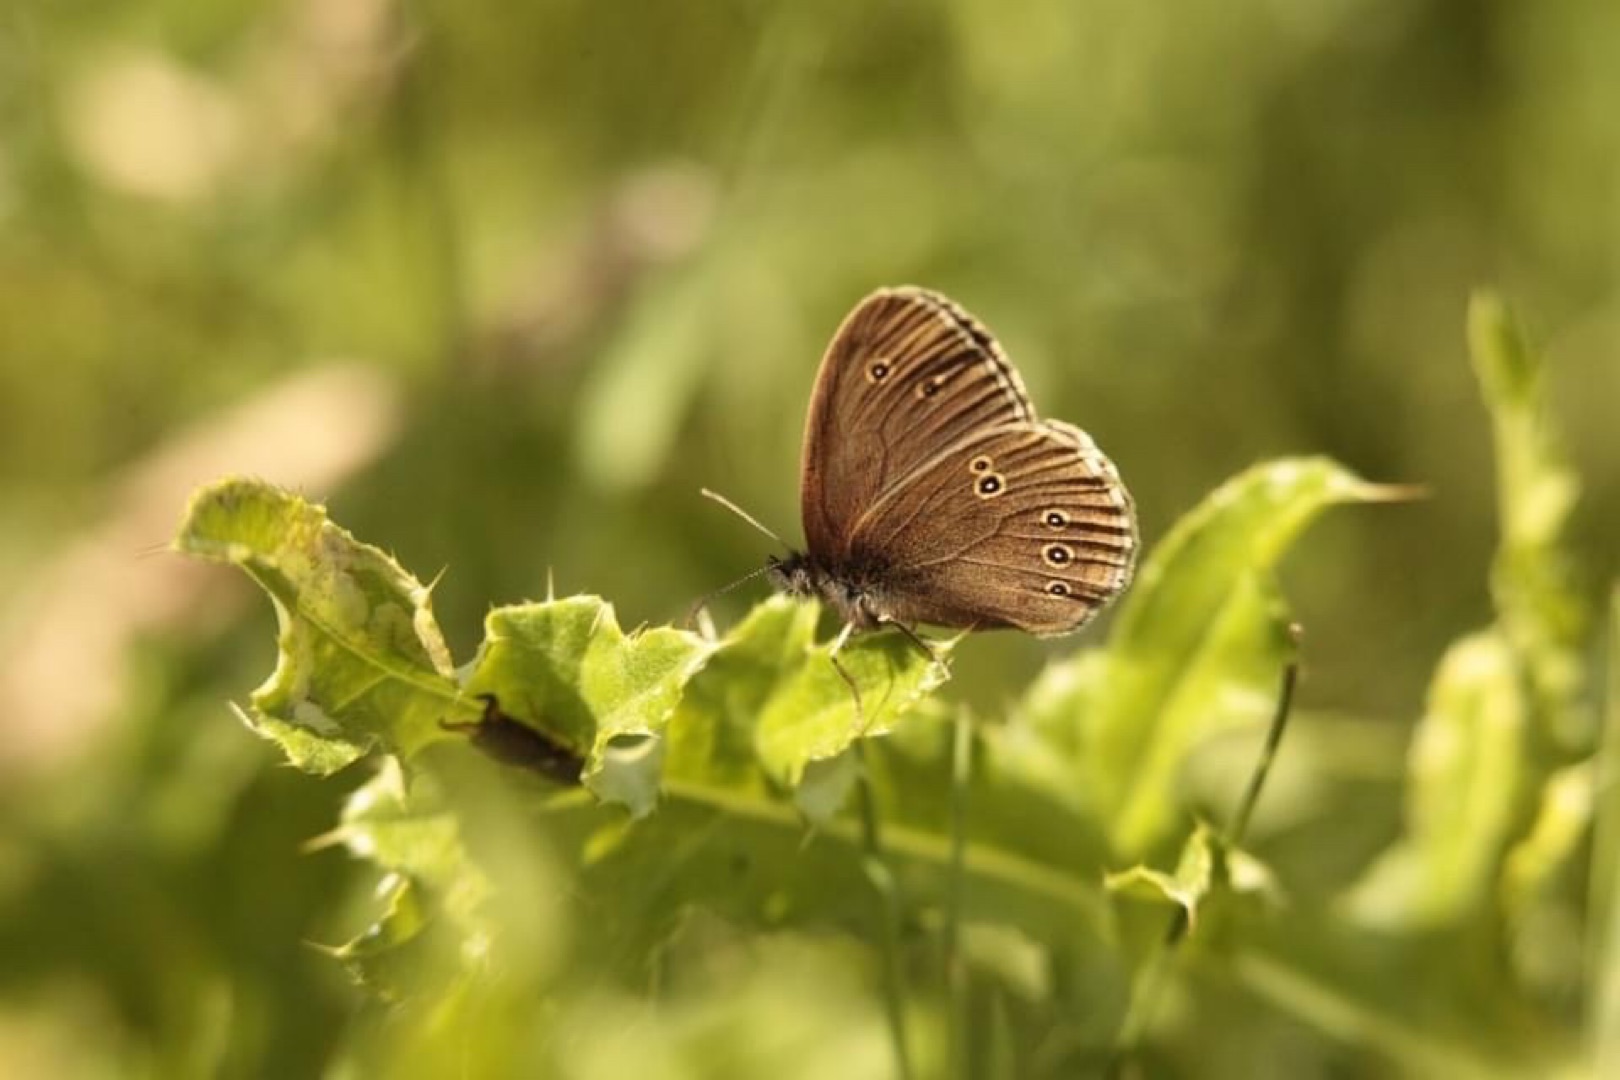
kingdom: Animalia
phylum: Arthropoda
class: Insecta
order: Lepidoptera
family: Nymphalidae
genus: Aphantopus
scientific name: Aphantopus hyperantus
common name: Engrandøje
